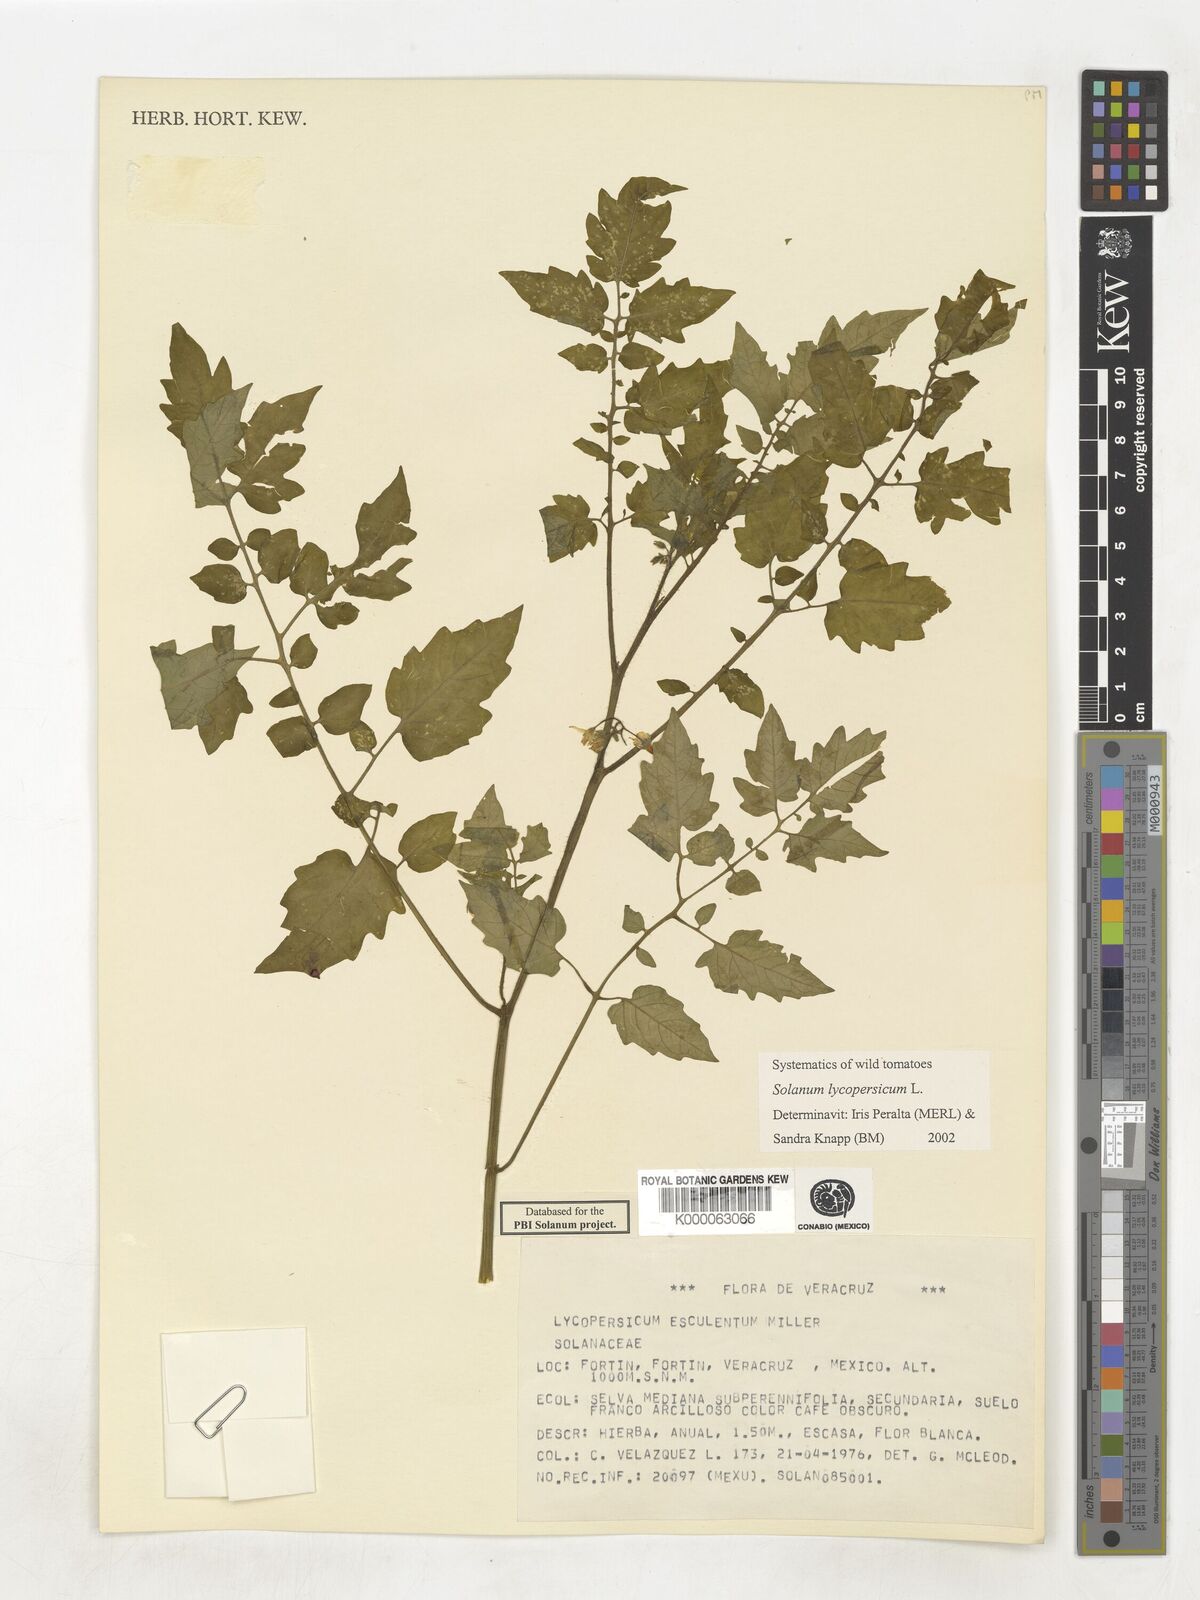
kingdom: Plantae
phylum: Tracheophyta
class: Magnoliopsida
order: Solanales
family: Solanaceae
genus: Lycopersicon
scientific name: Lycopersicon
